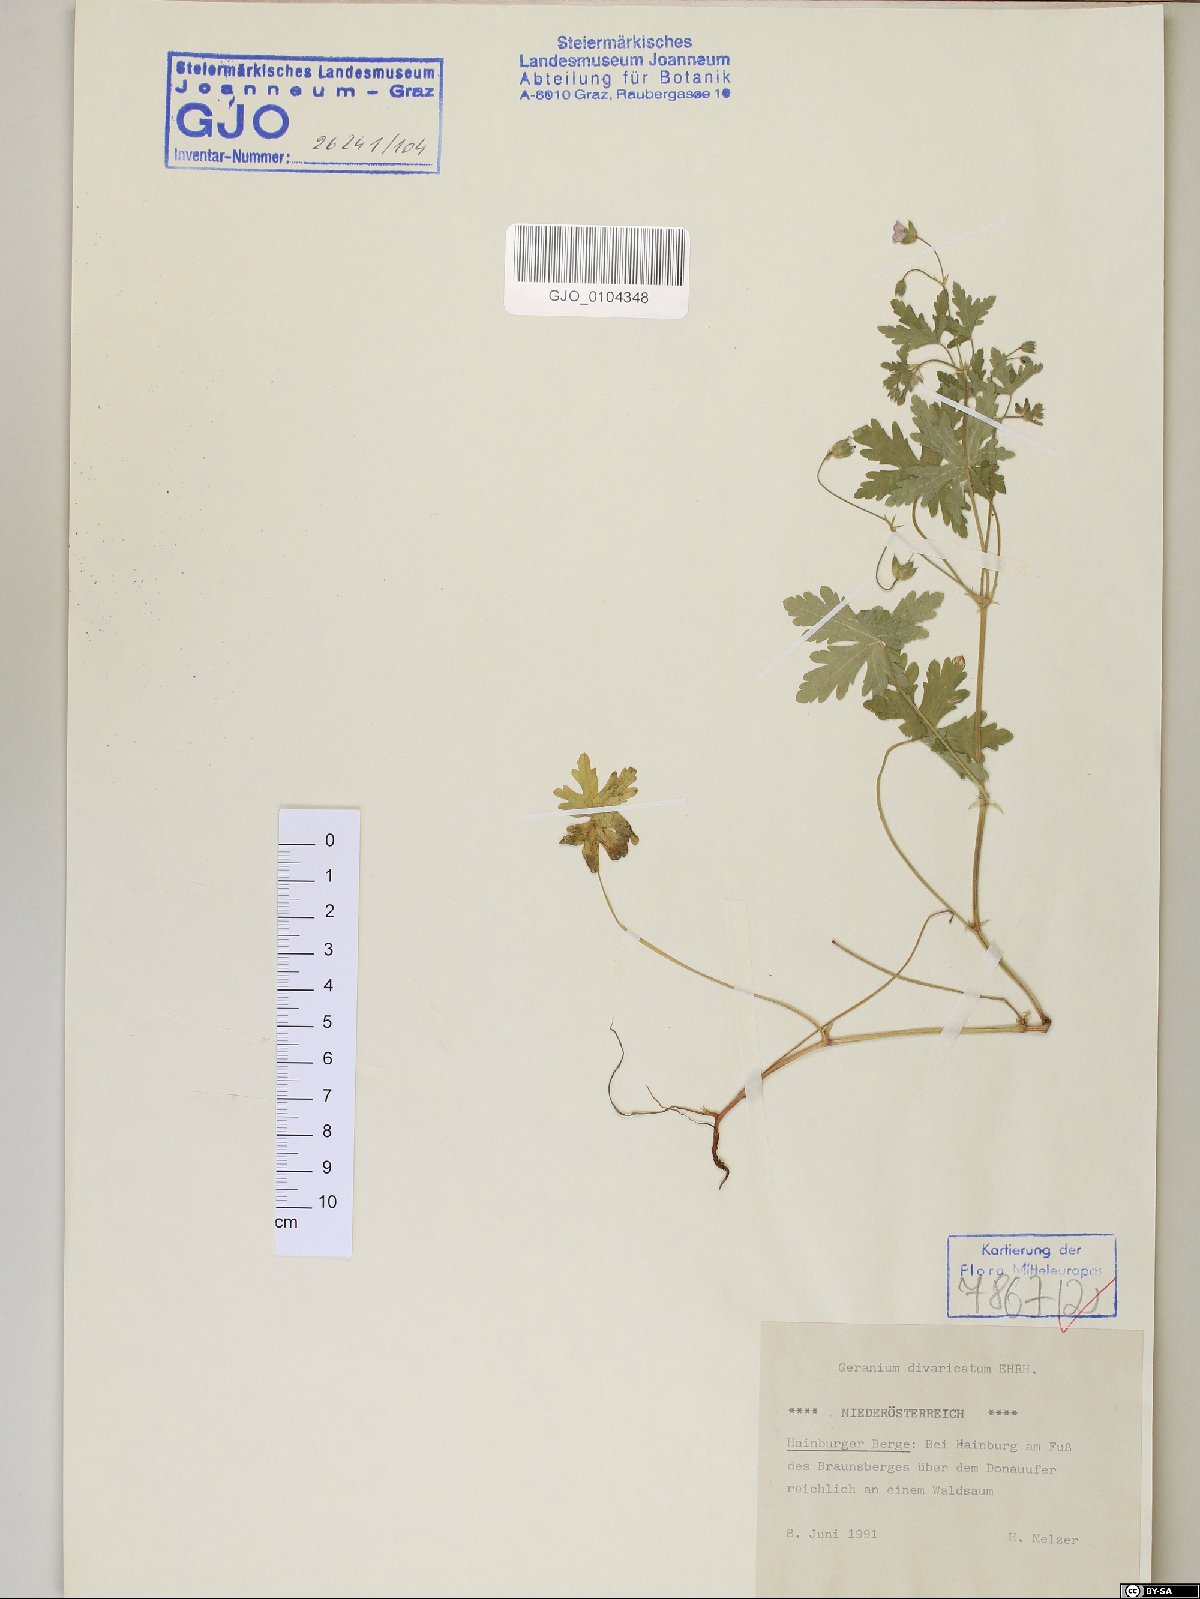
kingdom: Plantae
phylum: Tracheophyta
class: Magnoliopsida
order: Geraniales
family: Geraniaceae
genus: Geranium
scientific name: Geranium divaricatum
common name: Spreading crane's-bill
